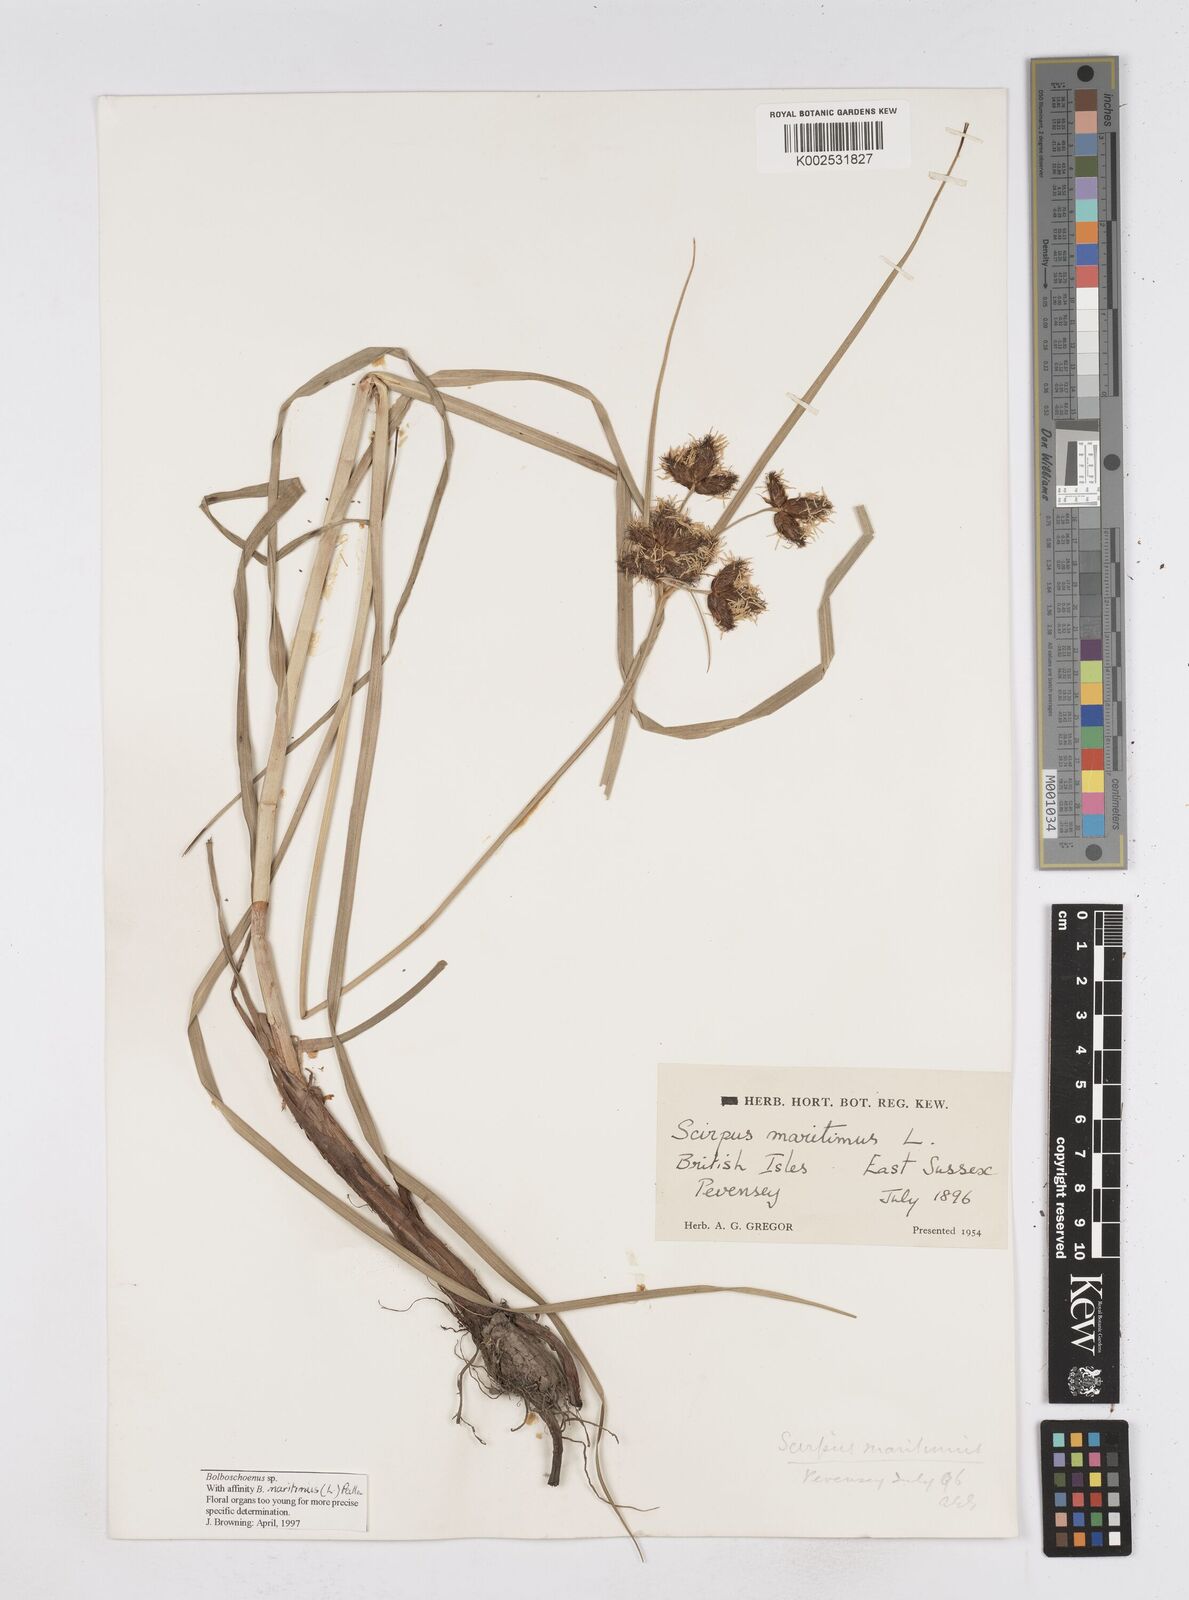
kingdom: Plantae
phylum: Tracheophyta
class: Liliopsida
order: Poales
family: Cyperaceae
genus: Bolboschoenus
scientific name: Bolboschoenus maritimus
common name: Sea club-rush
